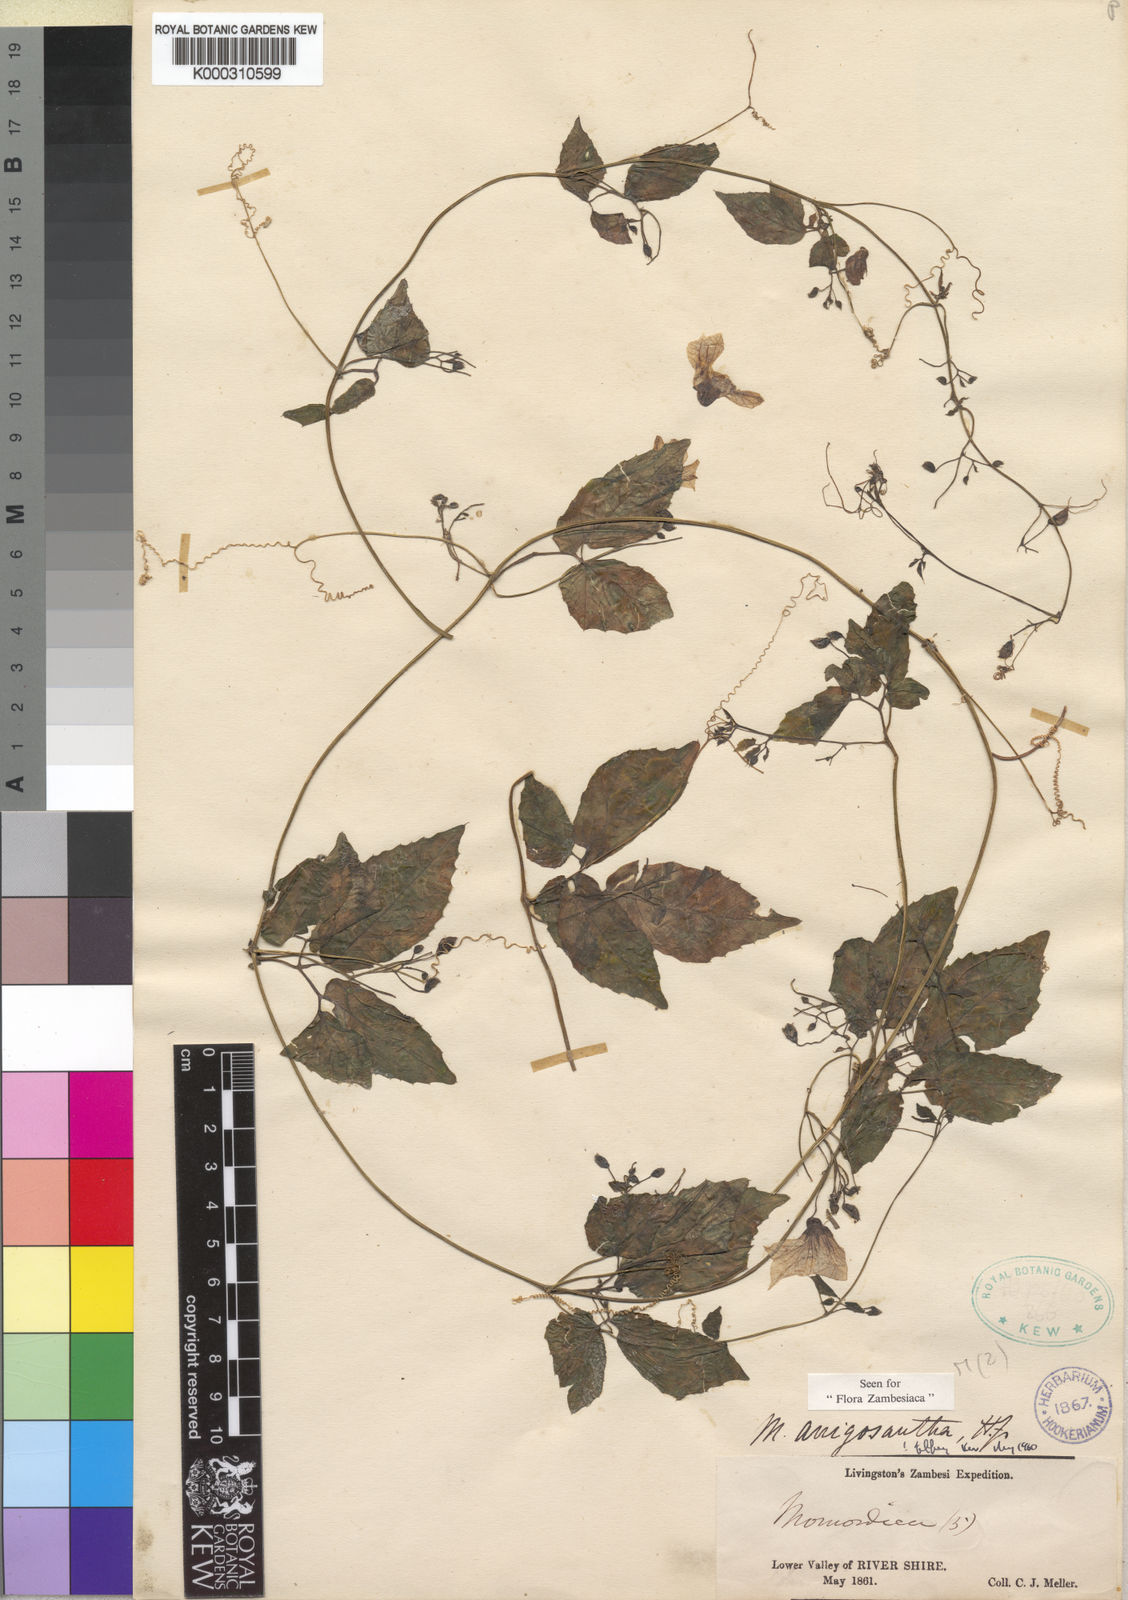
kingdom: Plantae
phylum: Tracheophyta
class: Magnoliopsida
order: Cucurbitales
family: Cucurbitaceae
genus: Momordica
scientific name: Momordica anigosantha
